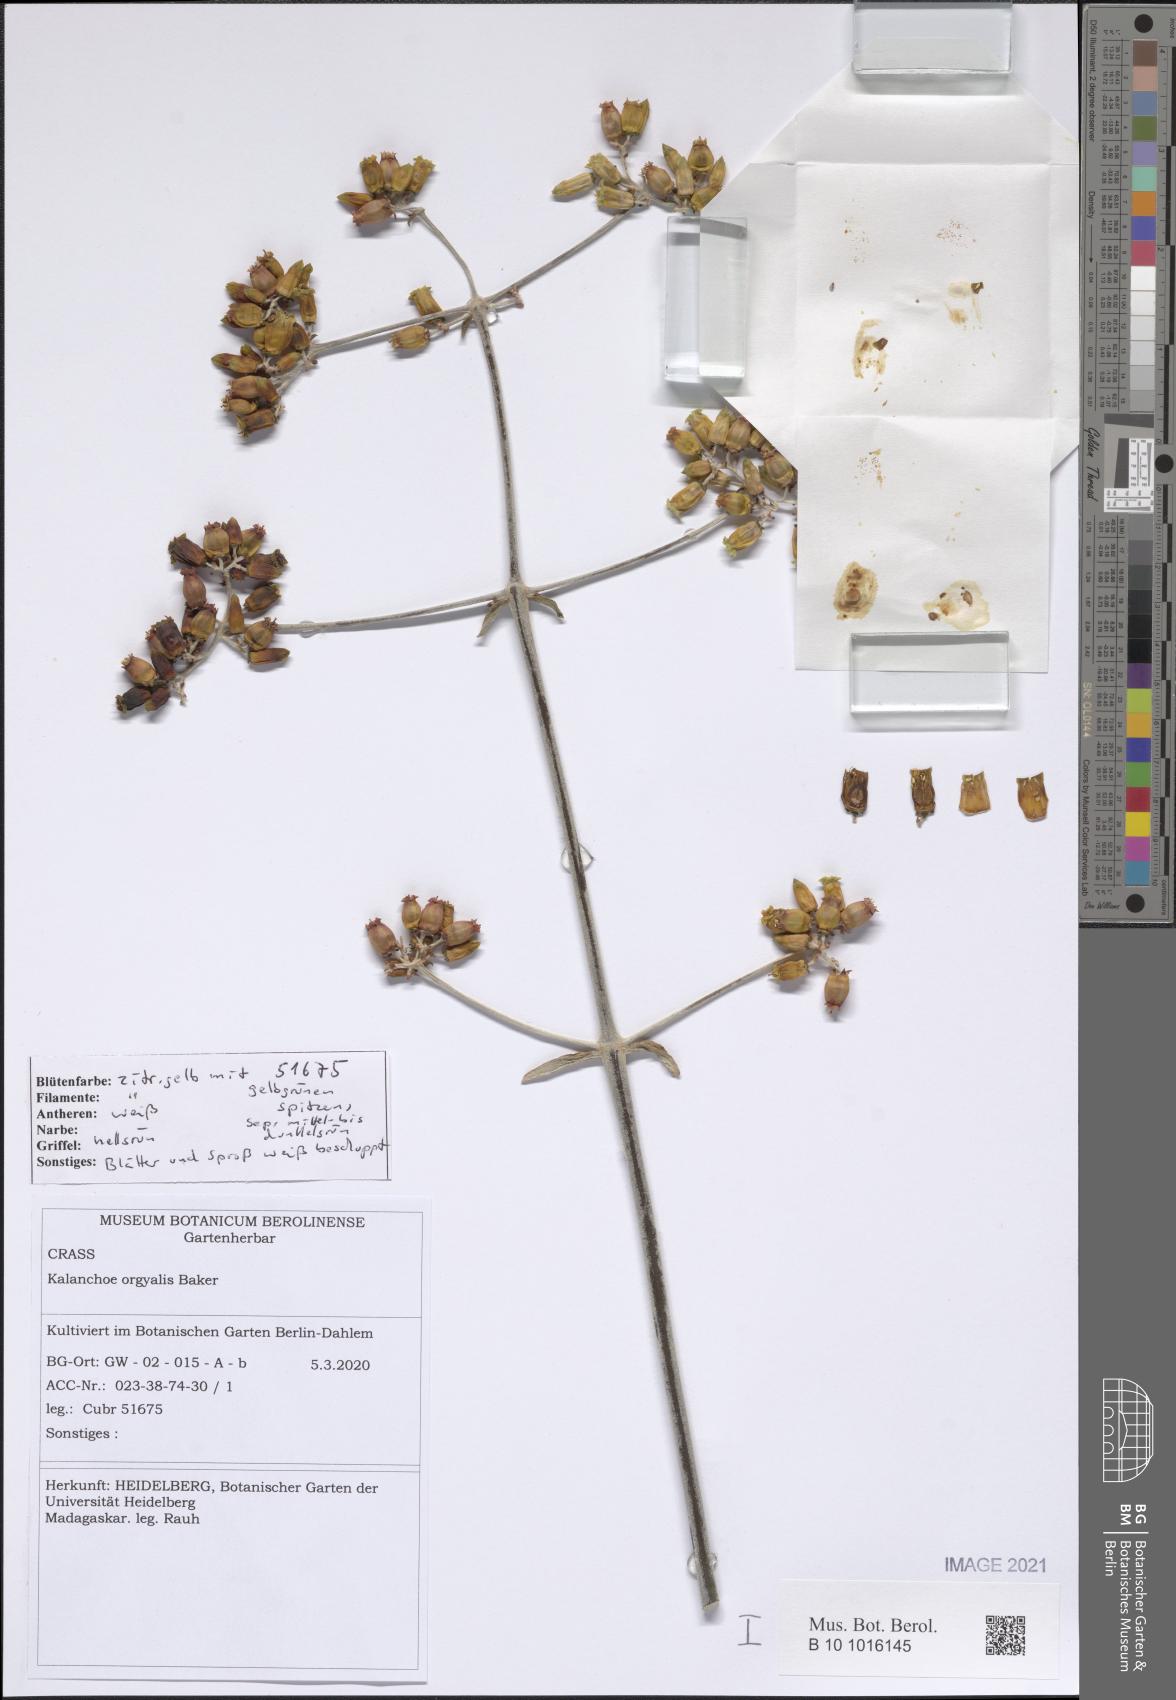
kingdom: Plantae
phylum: Tracheophyta
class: Magnoliopsida
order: Saxifragales
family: Crassulaceae
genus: Kalanchoe
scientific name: Kalanchoe orgyalis
